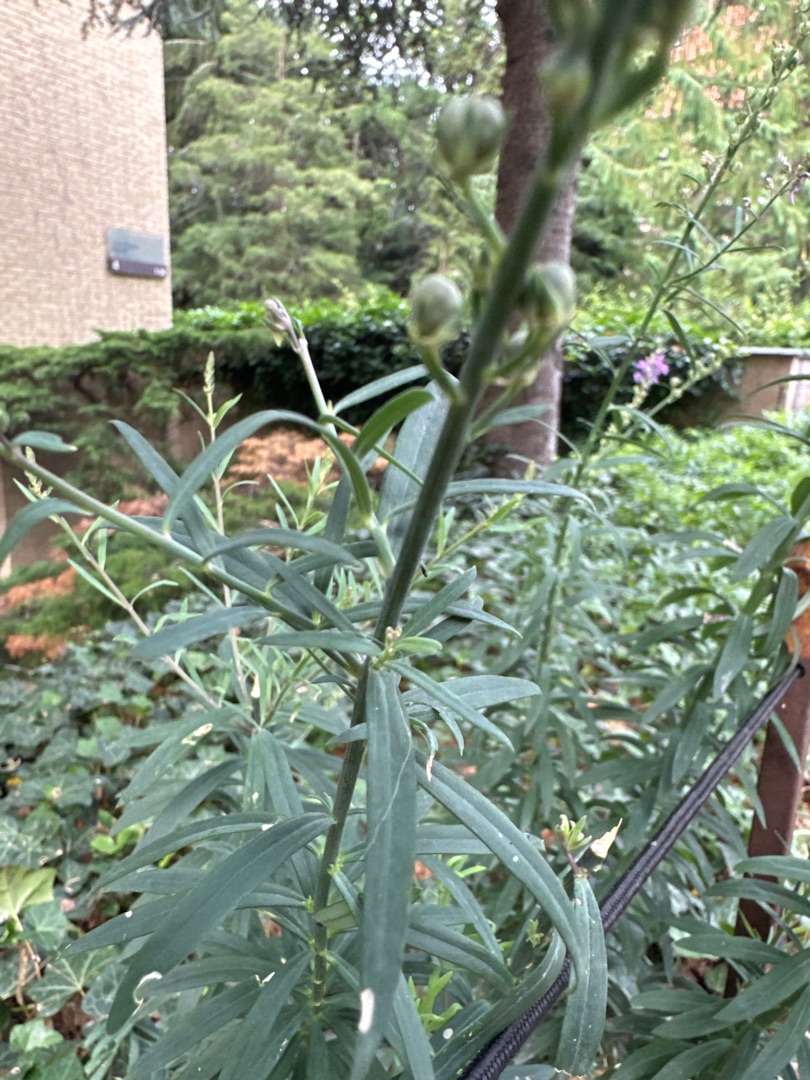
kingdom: Plantae
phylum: Tracheophyta
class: Magnoliopsida
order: Lamiales
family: Plantaginaceae
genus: Linaria
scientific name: Linaria purpurea
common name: Purpur-torskemund
